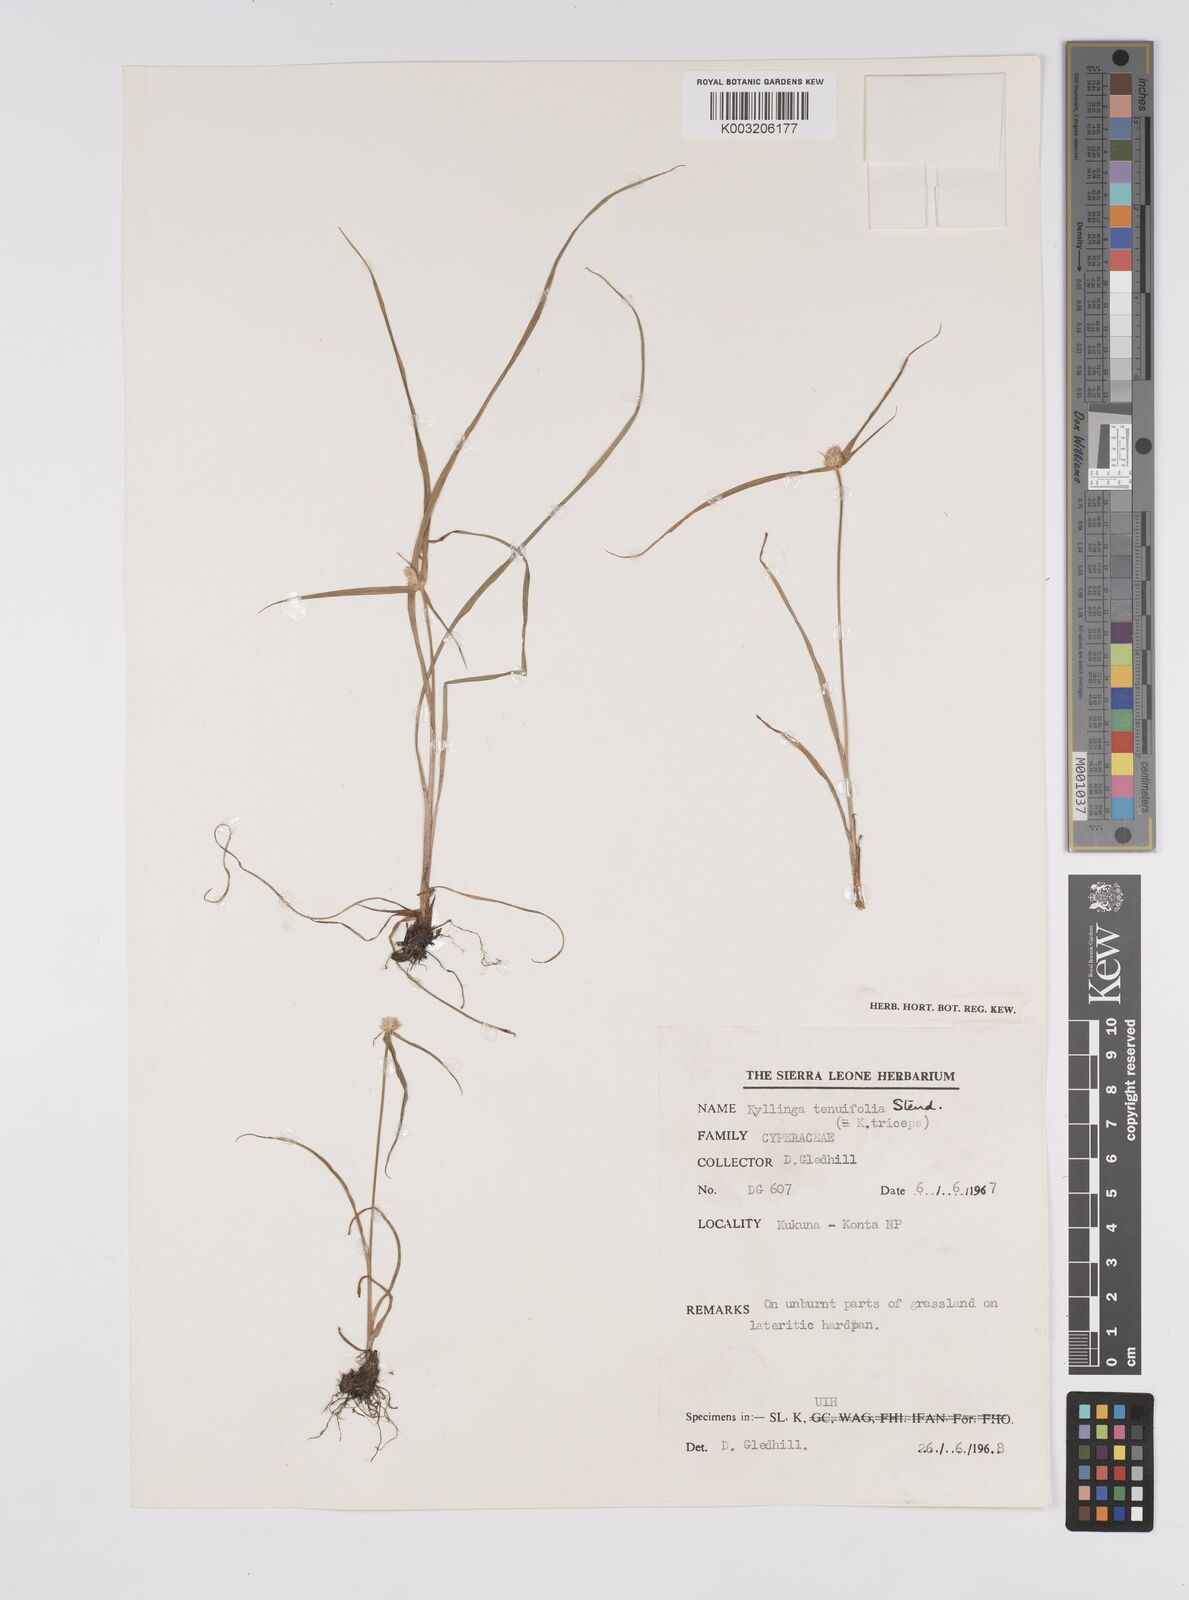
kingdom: Plantae
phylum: Tracheophyta
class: Liliopsida
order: Poales
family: Cyperaceae
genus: Cyperus
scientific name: Cyperus
